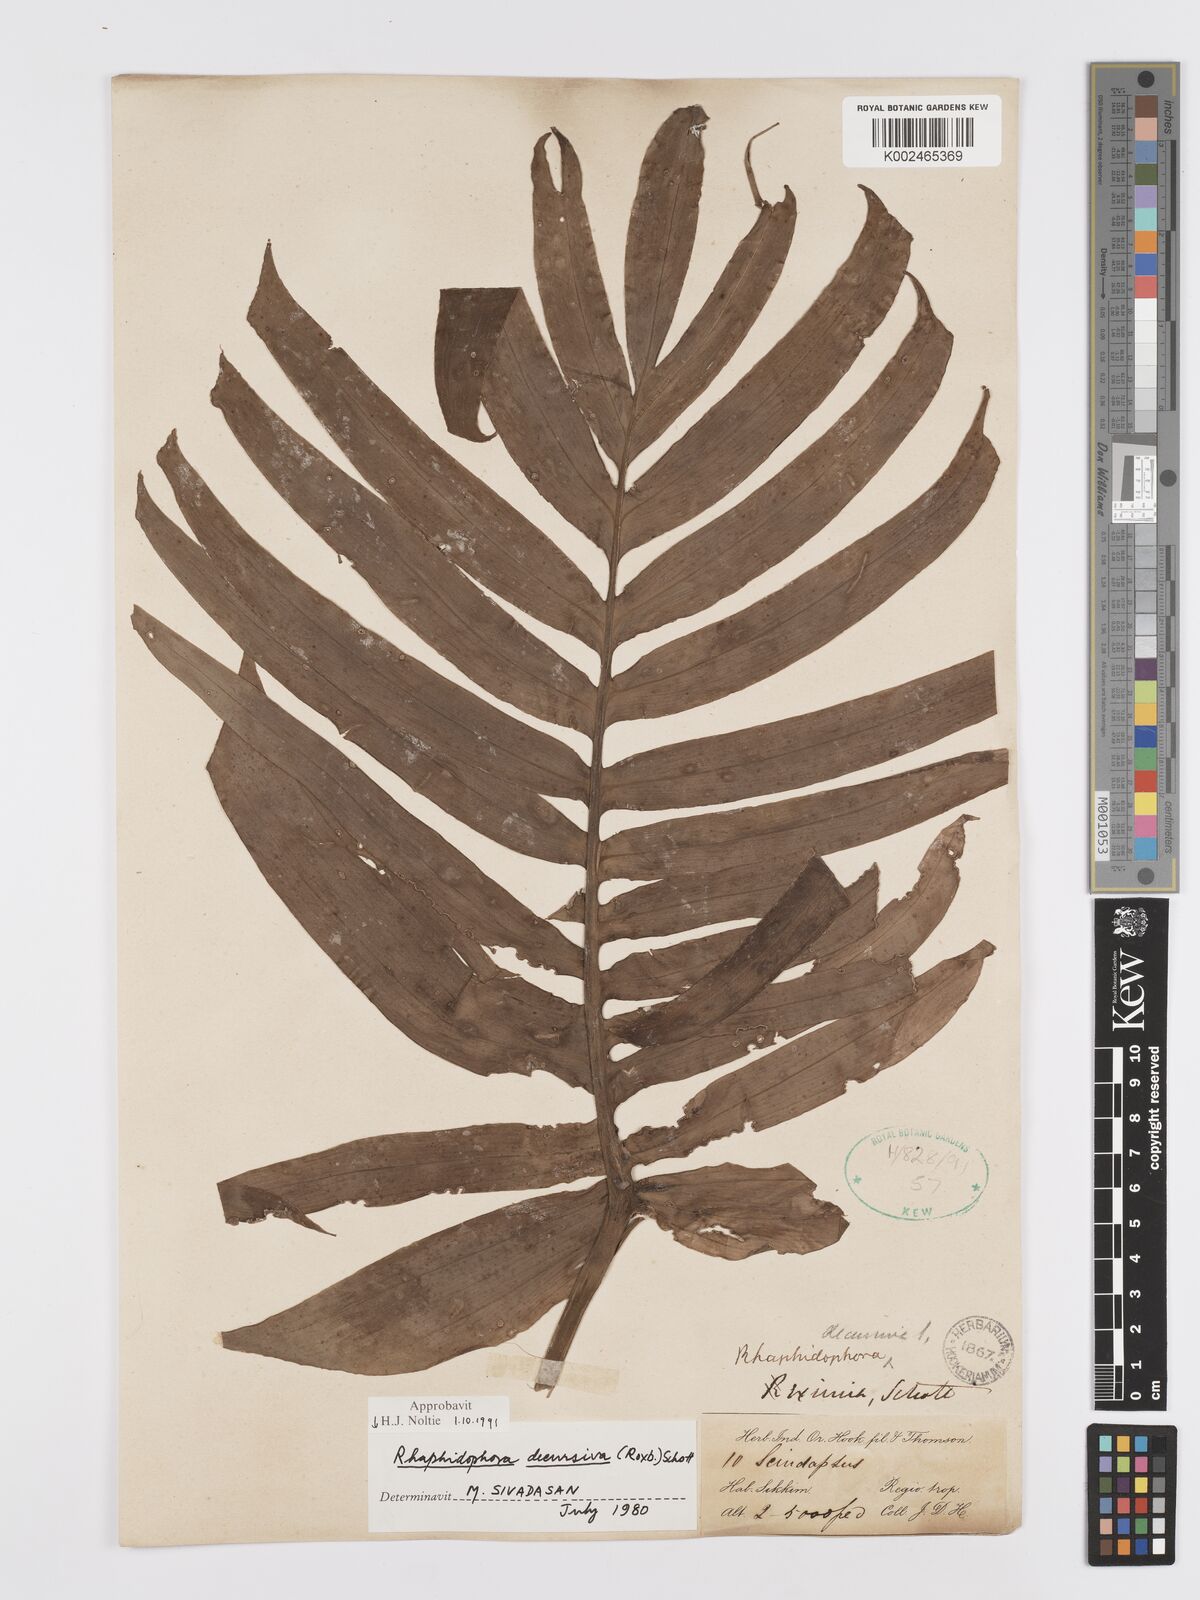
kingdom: Plantae
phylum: Tracheophyta
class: Liliopsida
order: Alismatales
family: Araceae
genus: Rhaphidophora
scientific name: Rhaphidophora decursiva
